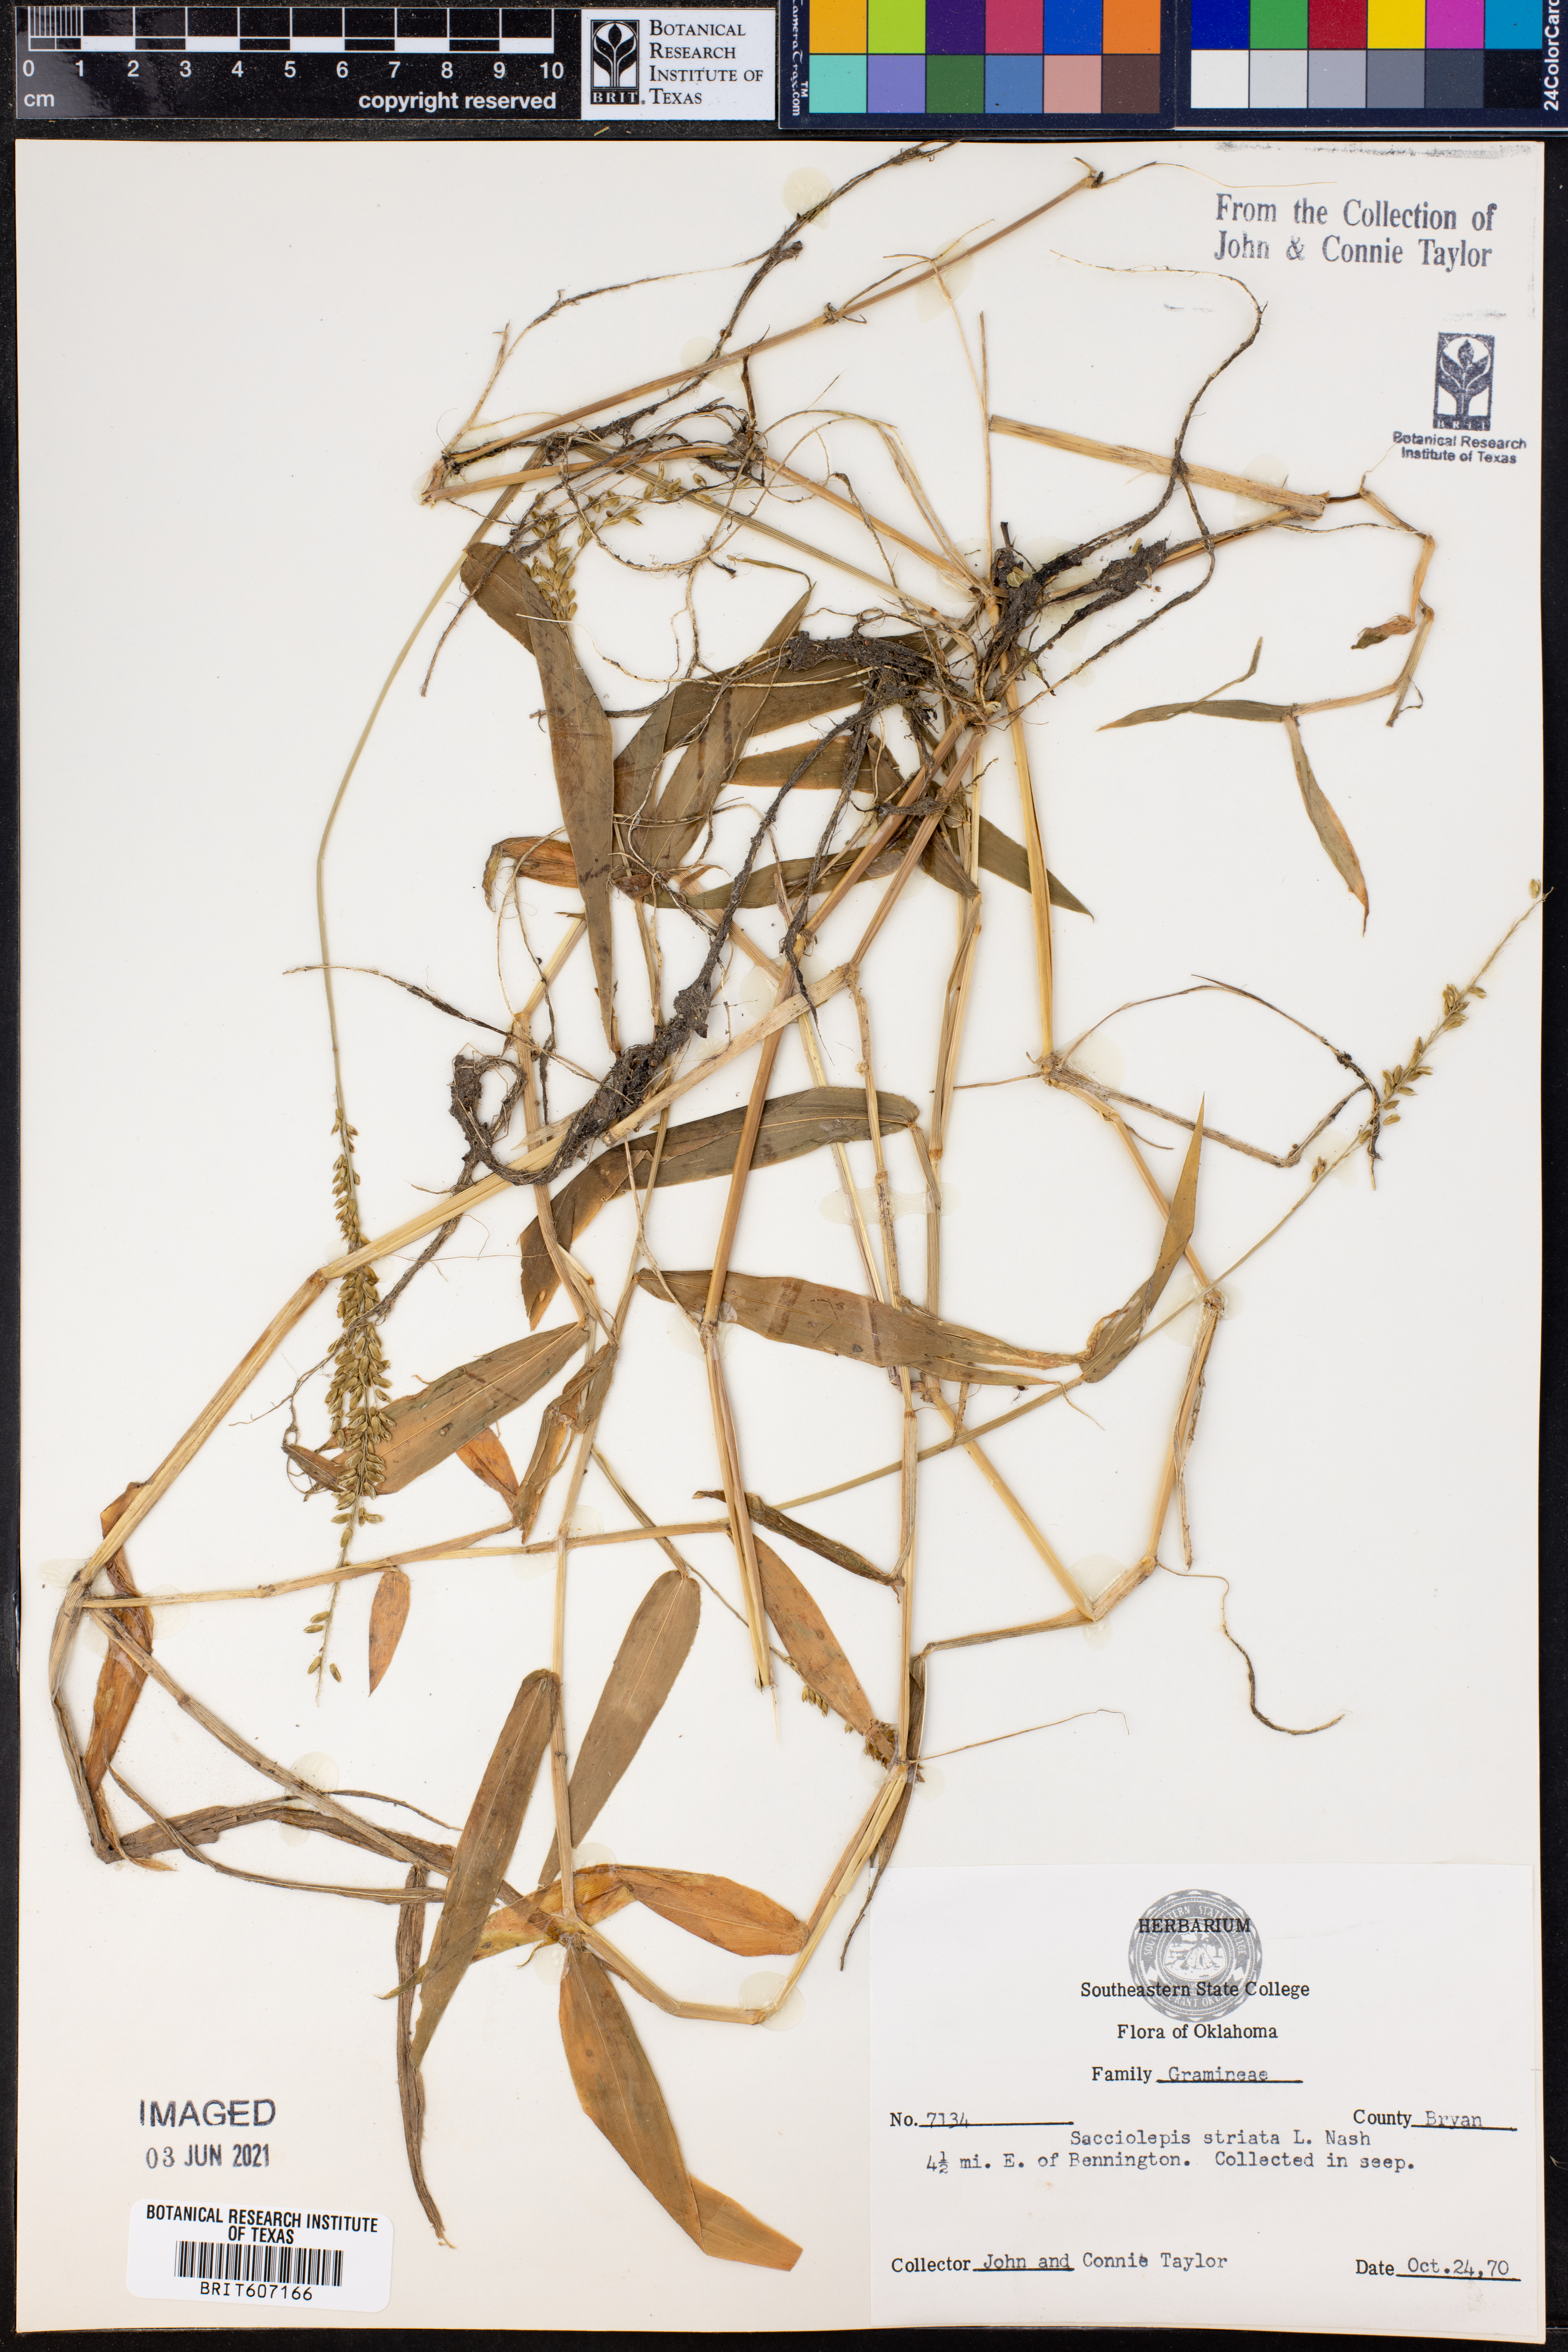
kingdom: Plantae
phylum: Tracheophyta
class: Liliopsida
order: Poales
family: Poaceae
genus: Sacciolepis
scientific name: Sacciolepis striata
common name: American cupscale
